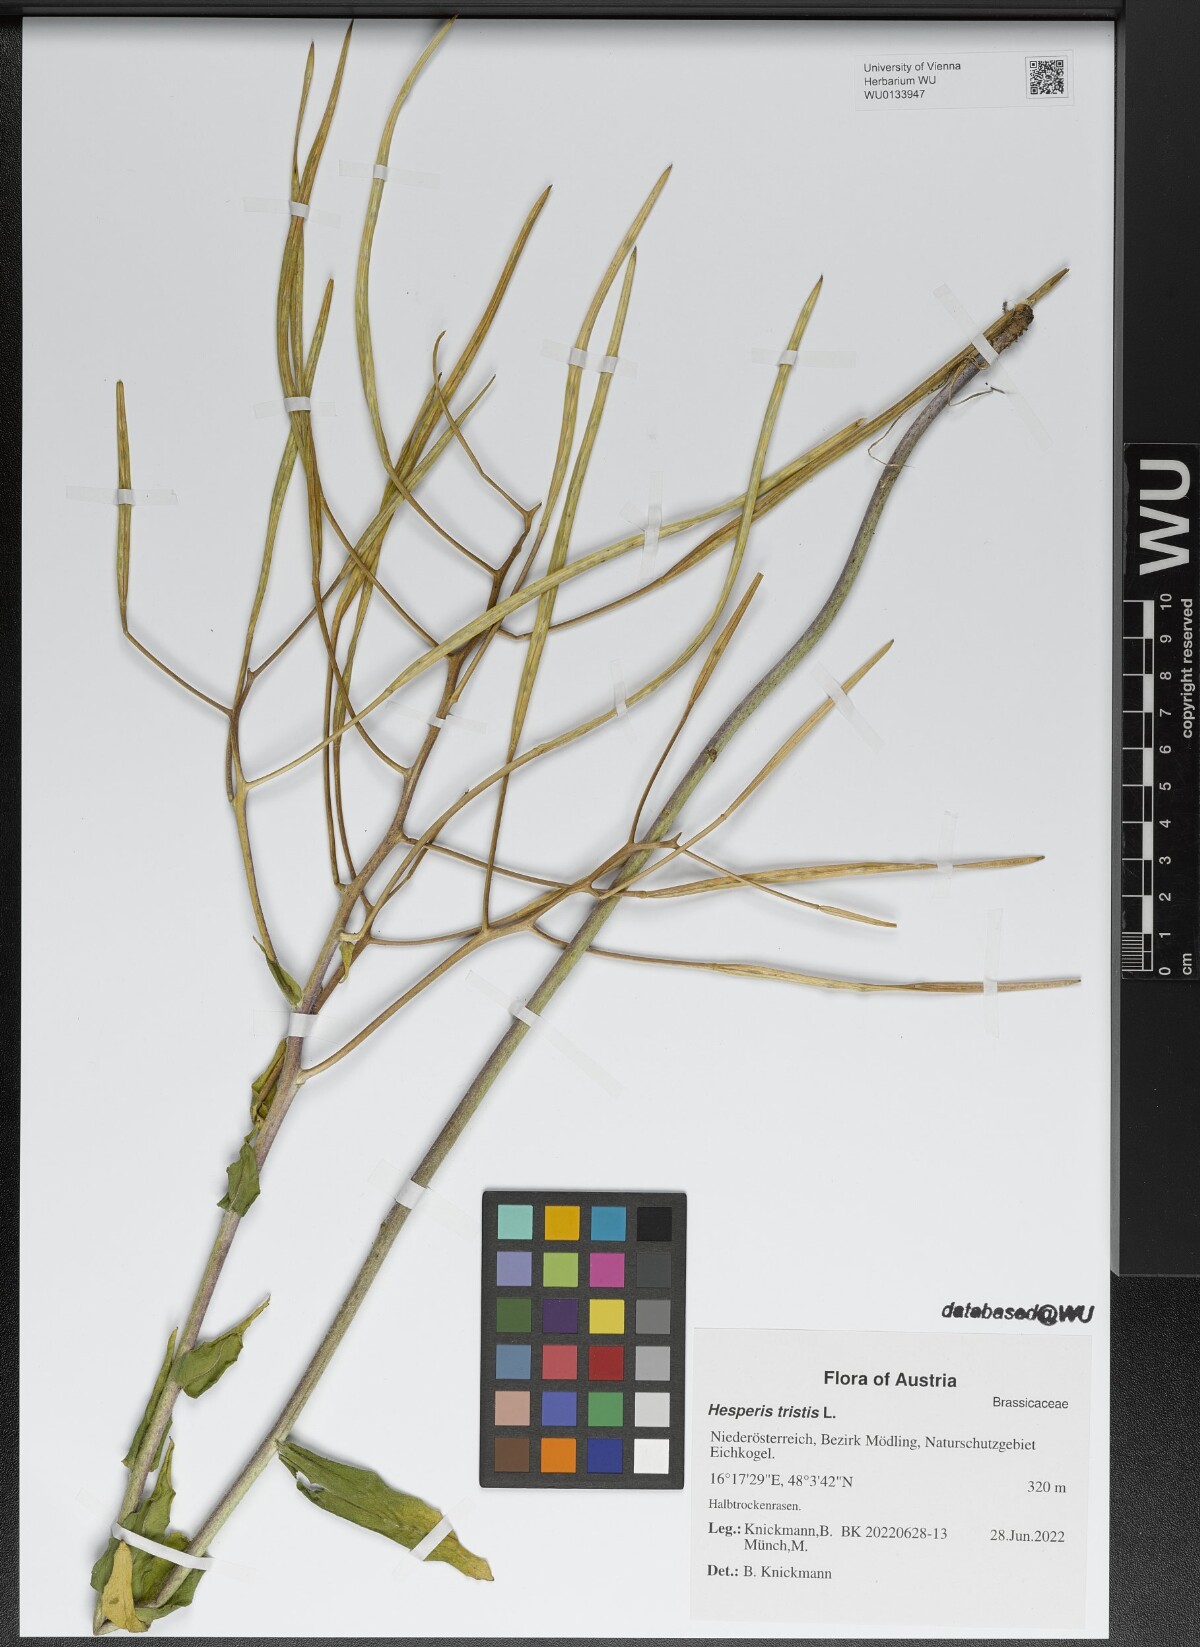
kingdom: Plantae
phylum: Tracheophyta
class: Magnoliopsida
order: Brassicales
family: Brassicaceae
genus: Hesperis
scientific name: Hesperis tristis
